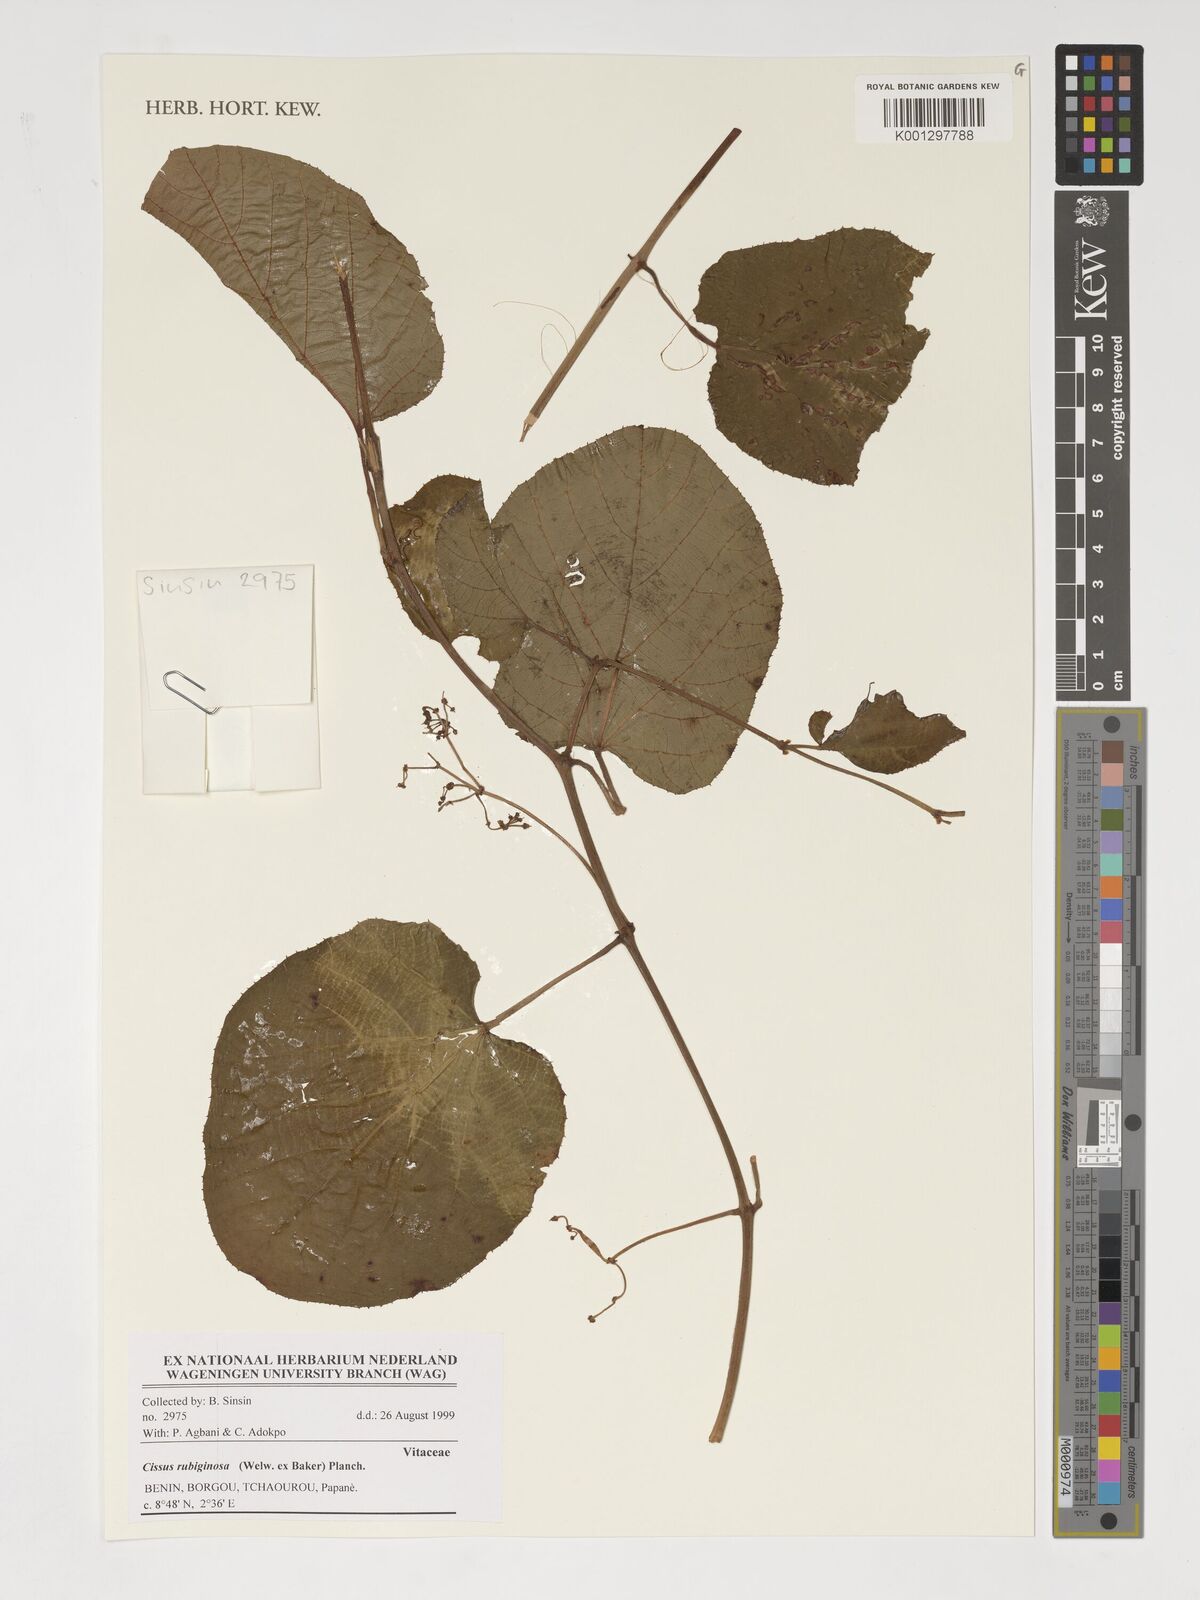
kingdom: Plantae
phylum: Tracheophyta
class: Magnoliopsida
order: Vitales
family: Vitaceae
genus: Cissus
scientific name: Cissus rubiginosa
